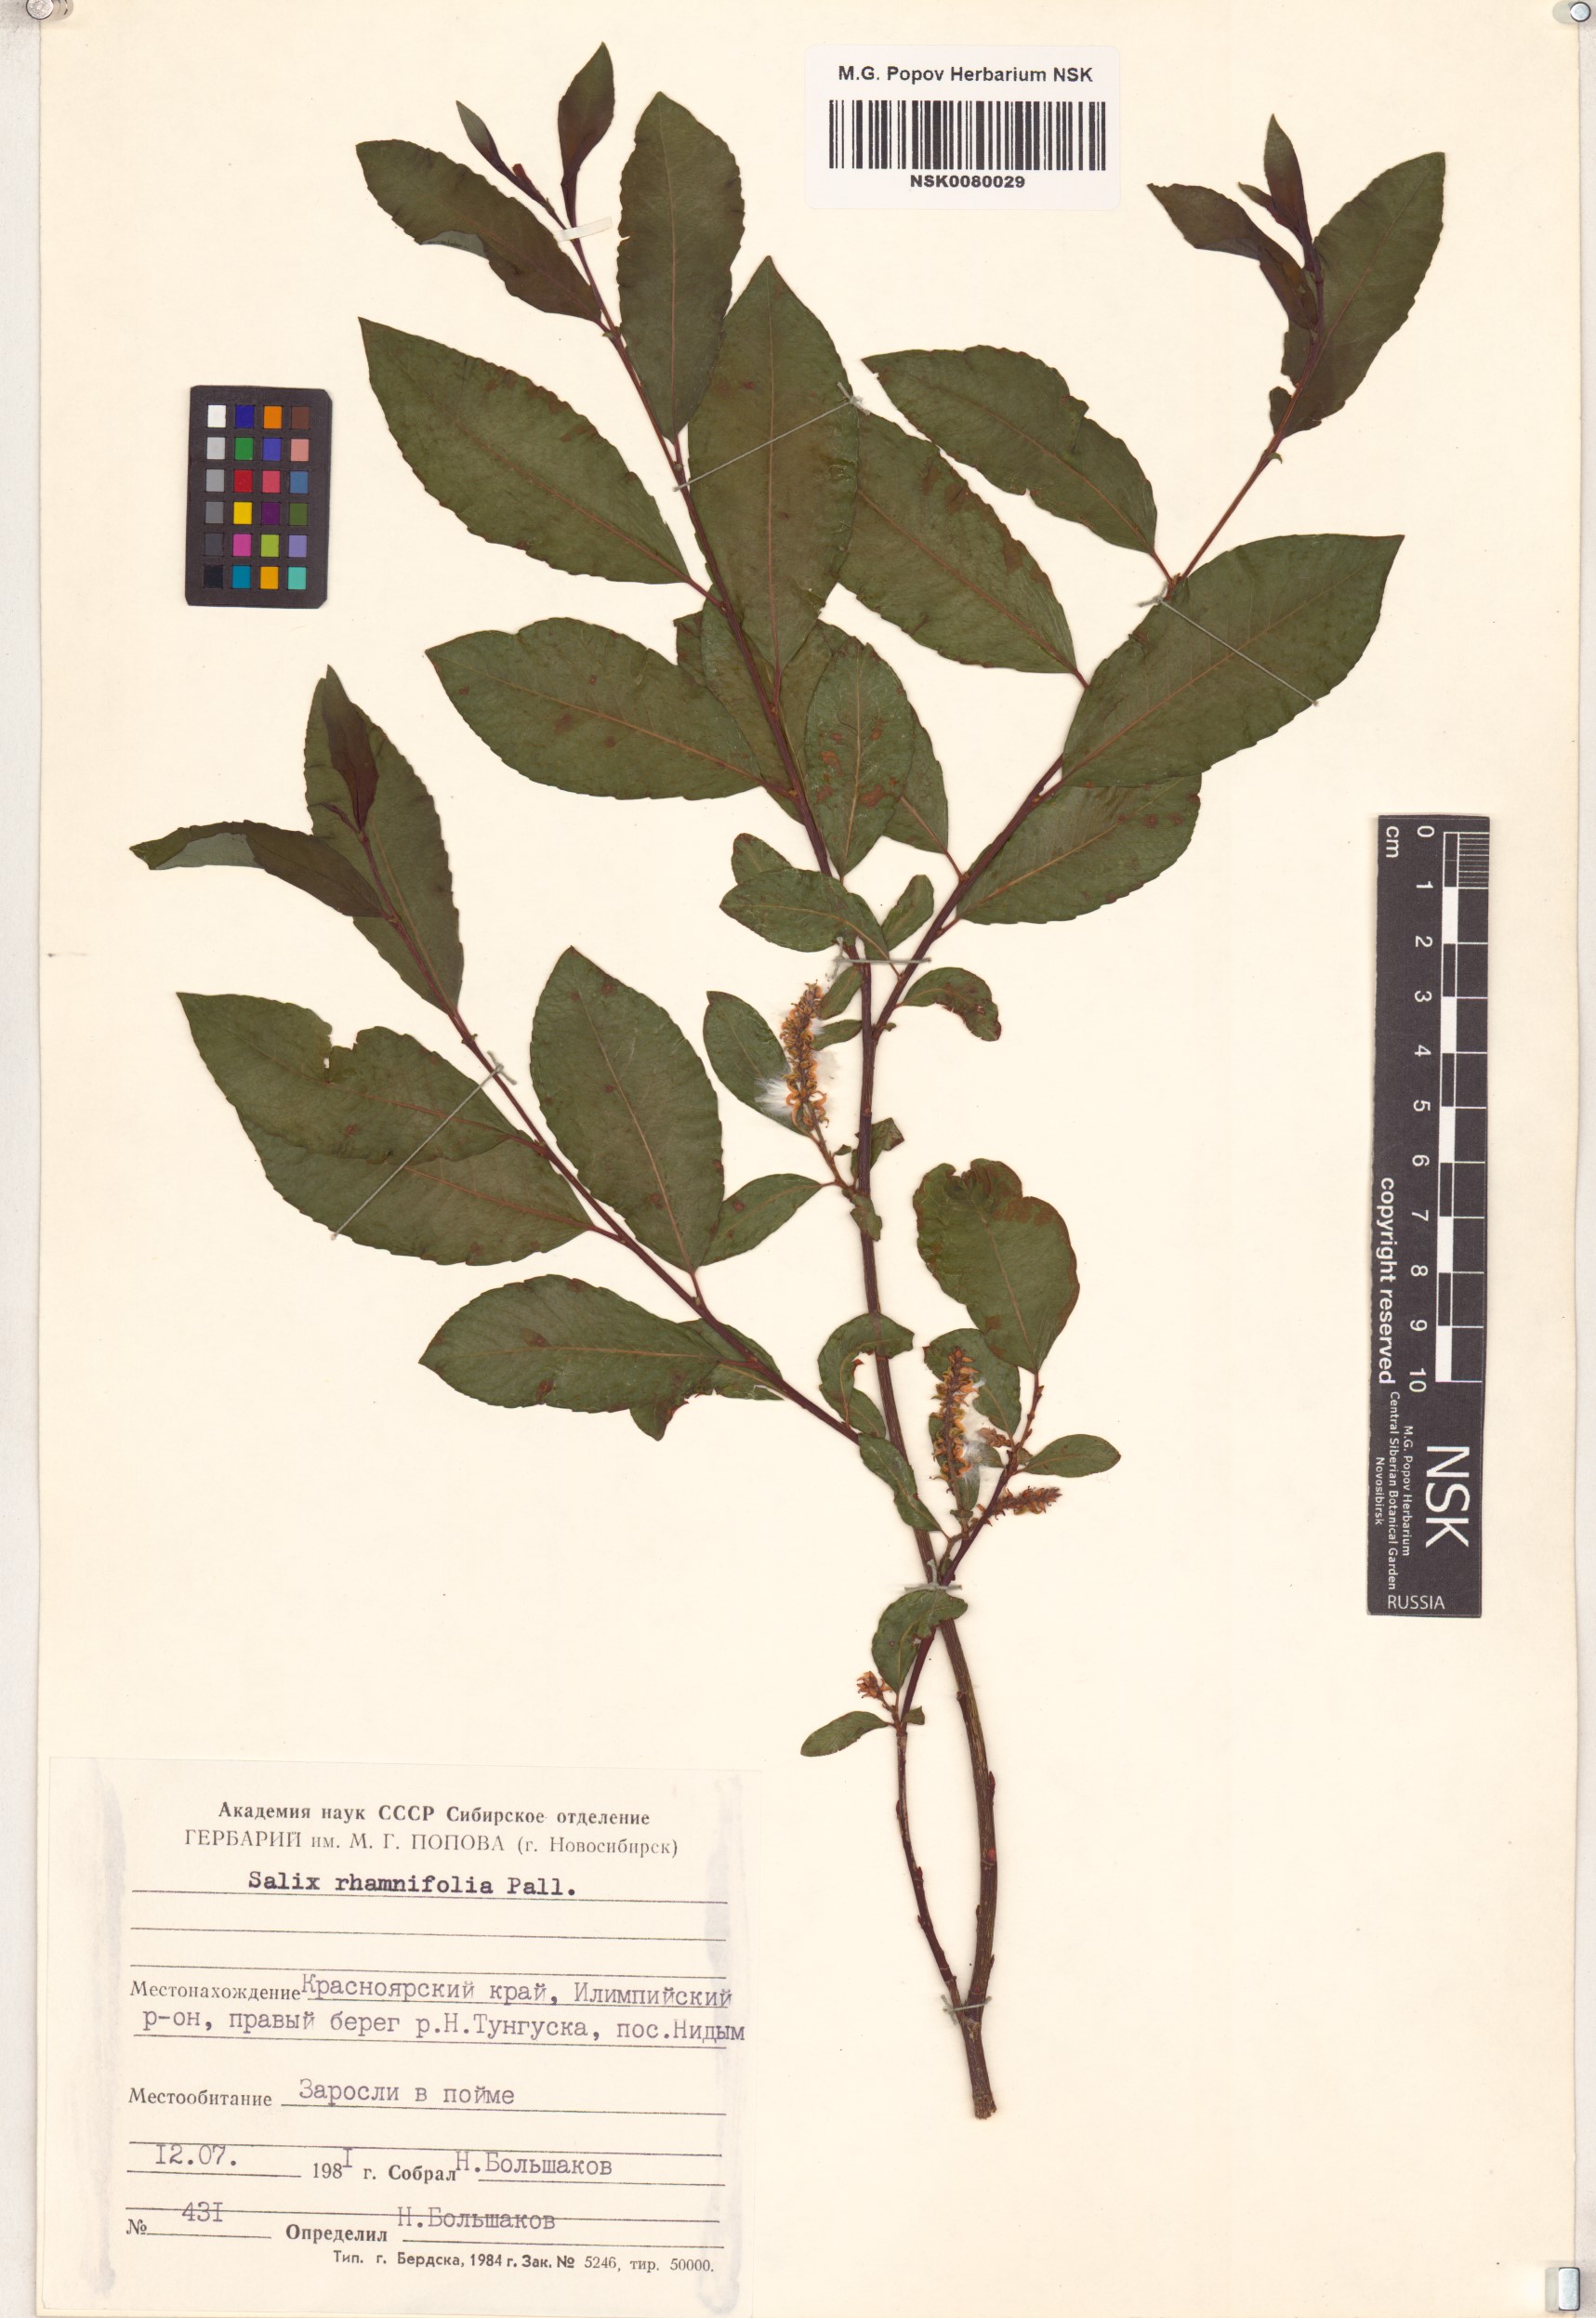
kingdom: Plantae
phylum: Tracheophyta
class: Magnoliopsida
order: Malpighiales
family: Salicaceae
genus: Salix
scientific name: Salix rhamnifolia
